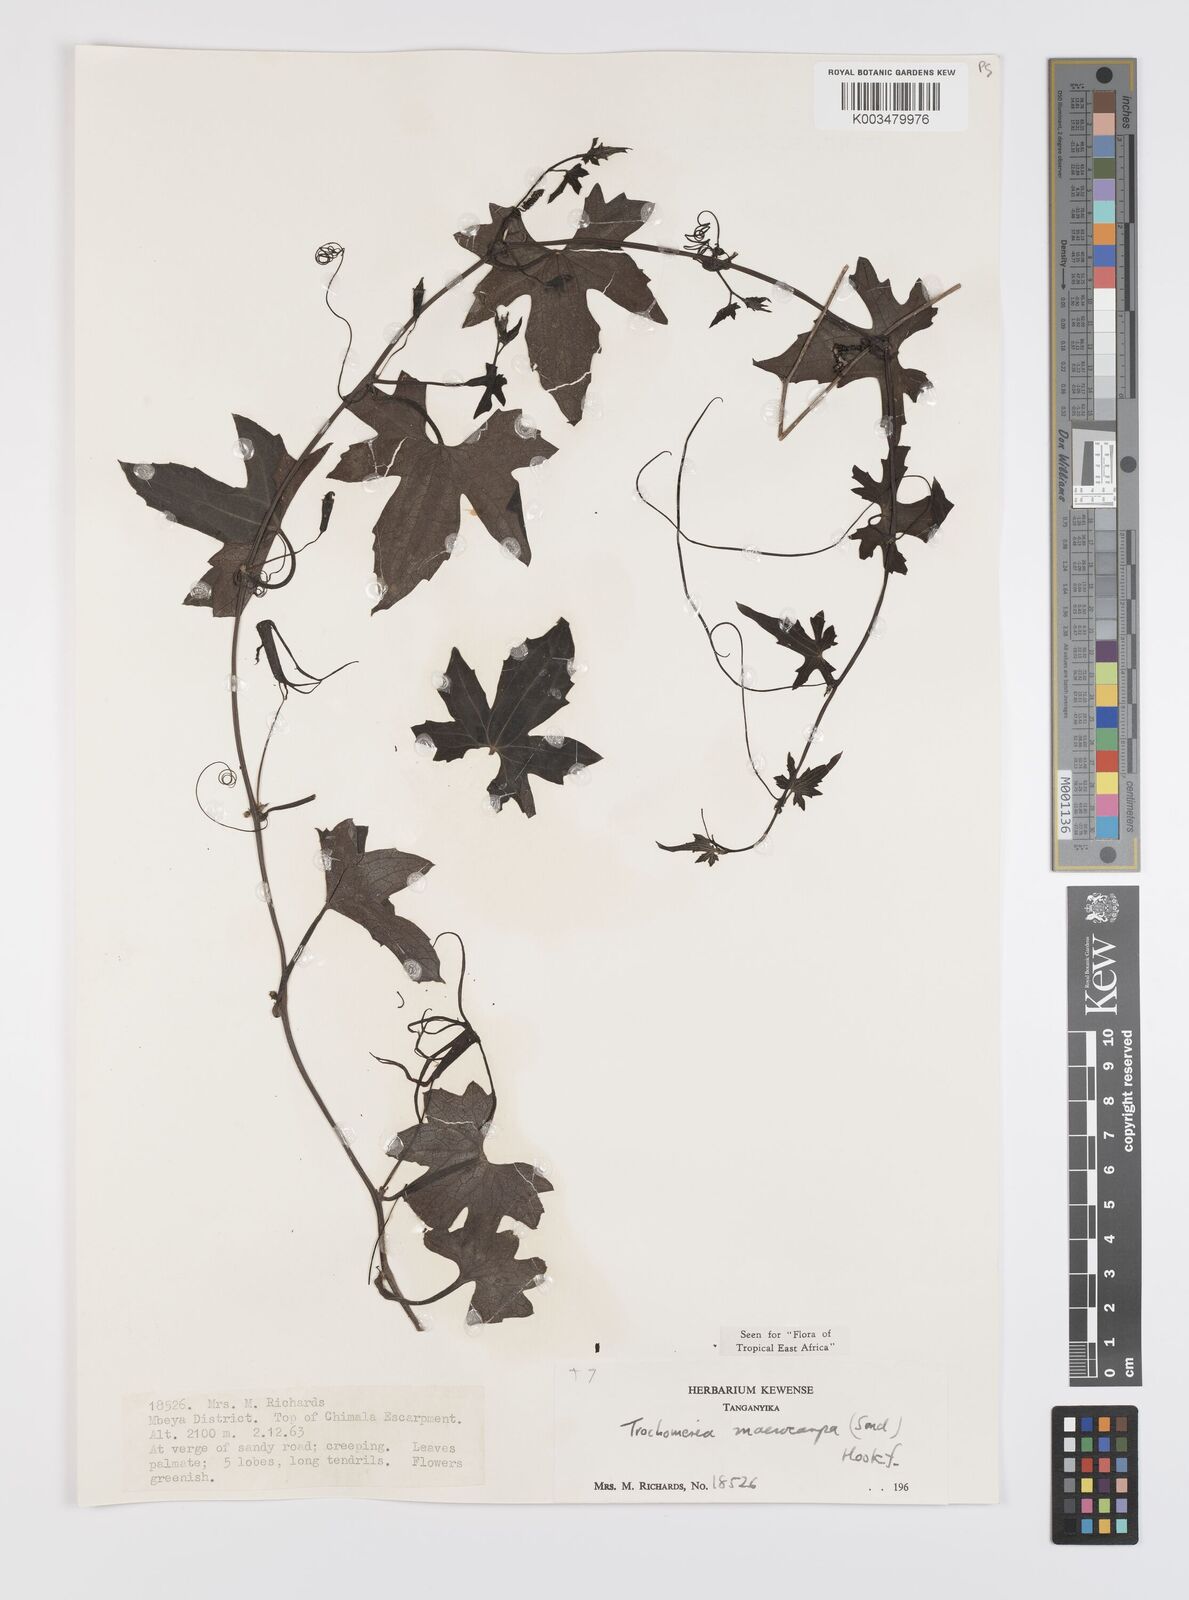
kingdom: Plantae
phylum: Tracheophyta
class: Magnoliopsida
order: Cucurbitales
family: Cucurbitaceae
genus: Trochomeria
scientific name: Trochomeria macrocarpa
